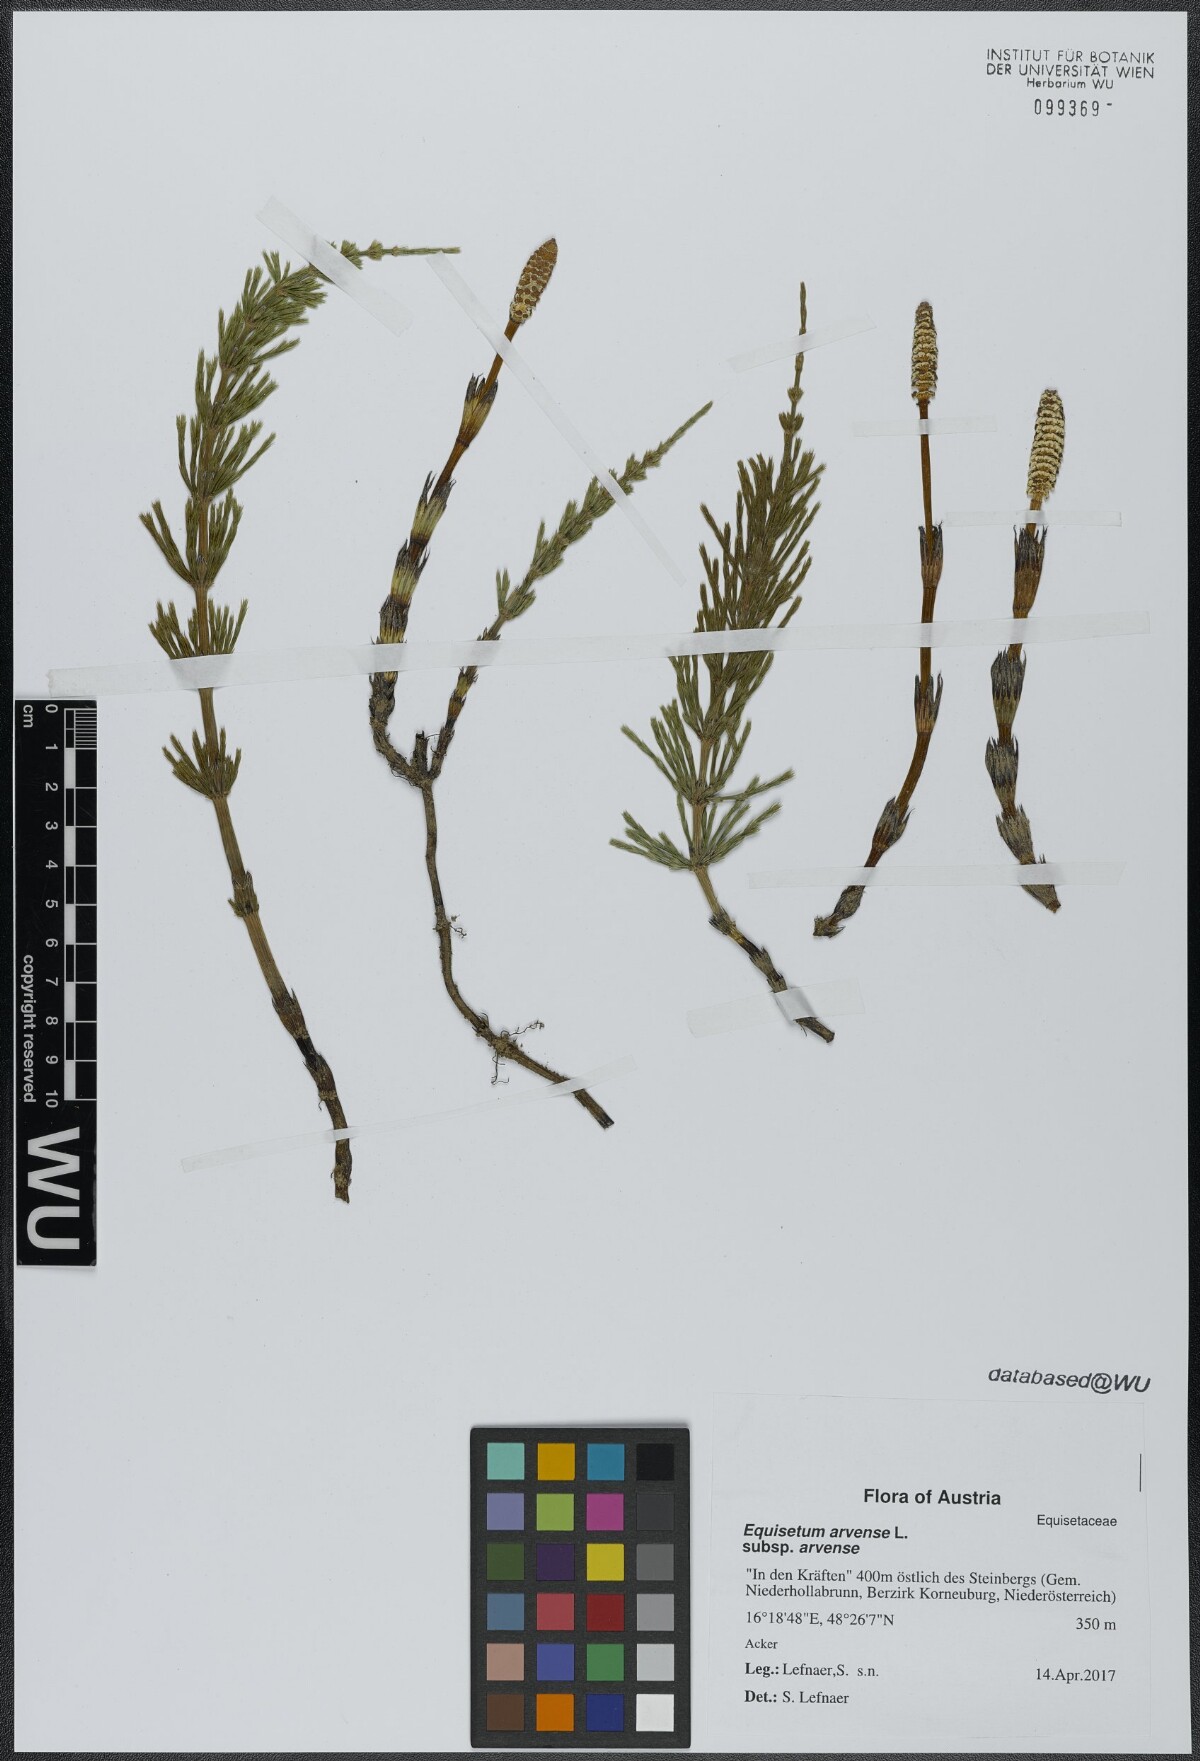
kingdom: Plantae
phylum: Tracheophyta
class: Polypodiopsida
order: Equisetales
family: Equisetaceae
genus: Equisetum
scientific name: Equisetum arvense
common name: Field horsetail
